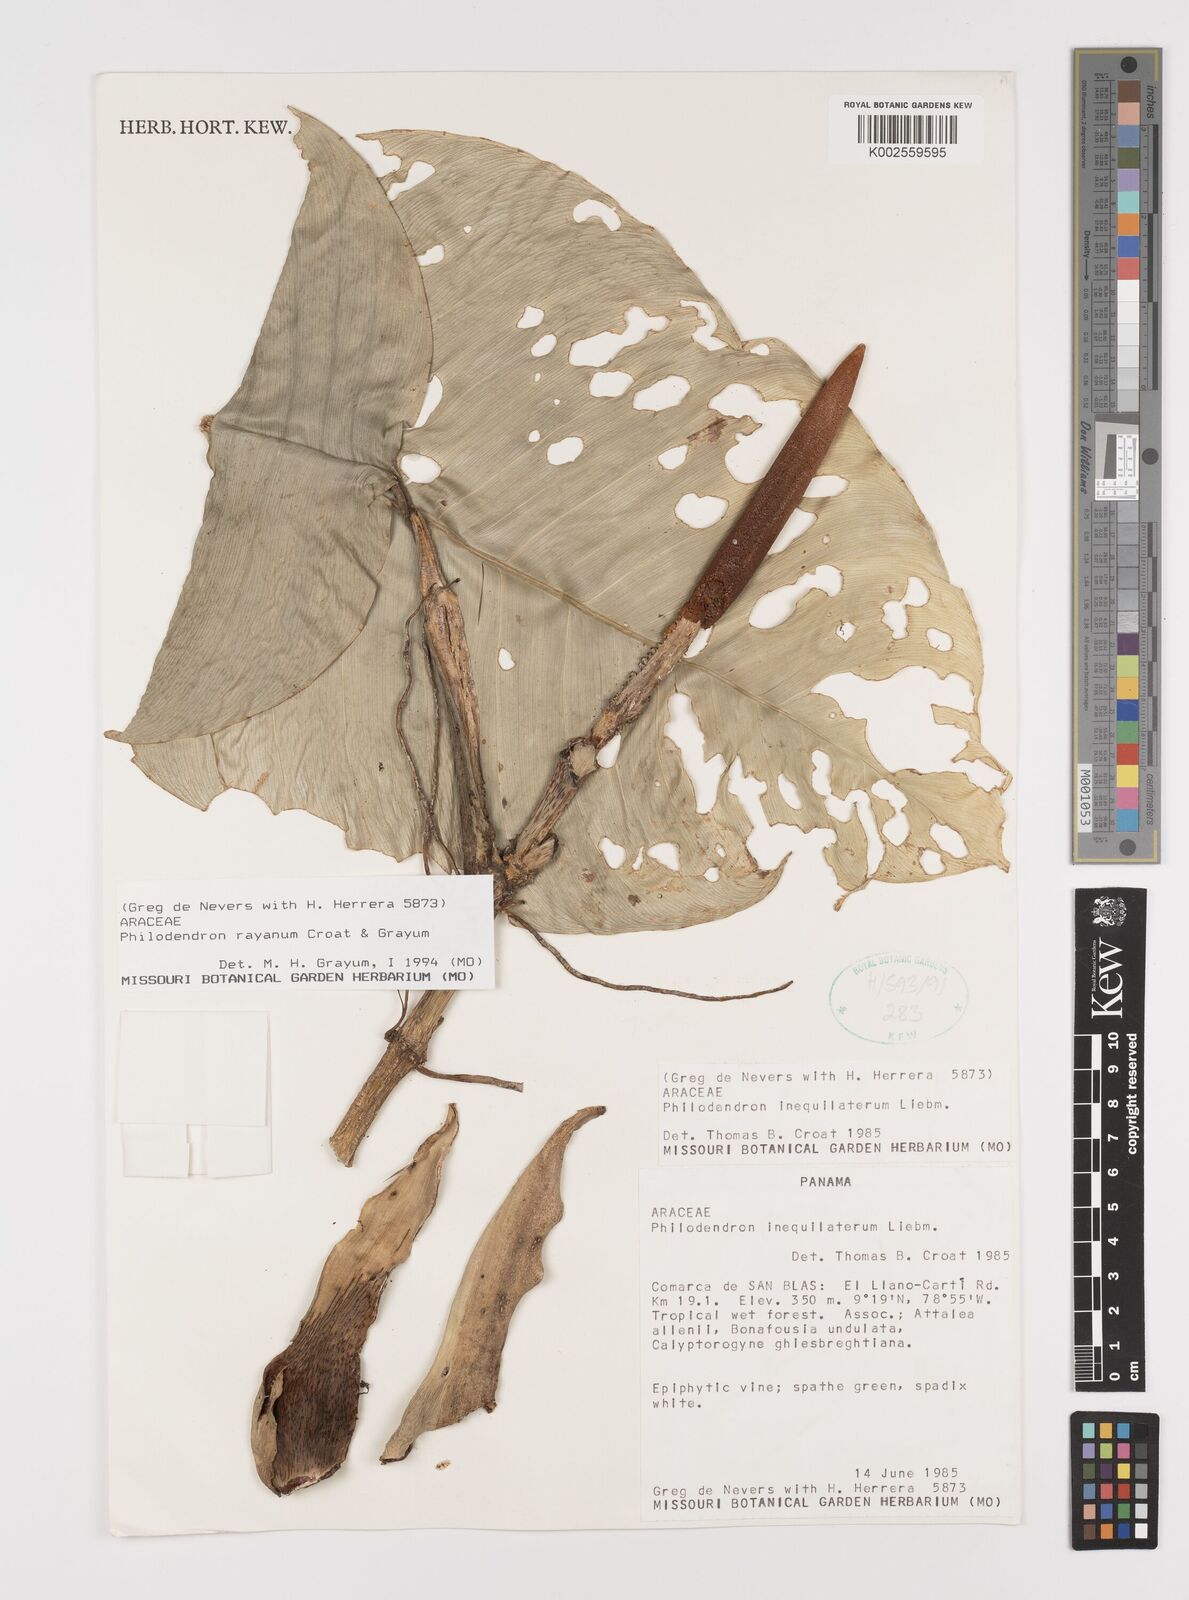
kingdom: Plantae
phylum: Tracheophyta
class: Liliopsida
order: Alismatales
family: Araceae
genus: Philodendron
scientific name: Philodendron rayanum
